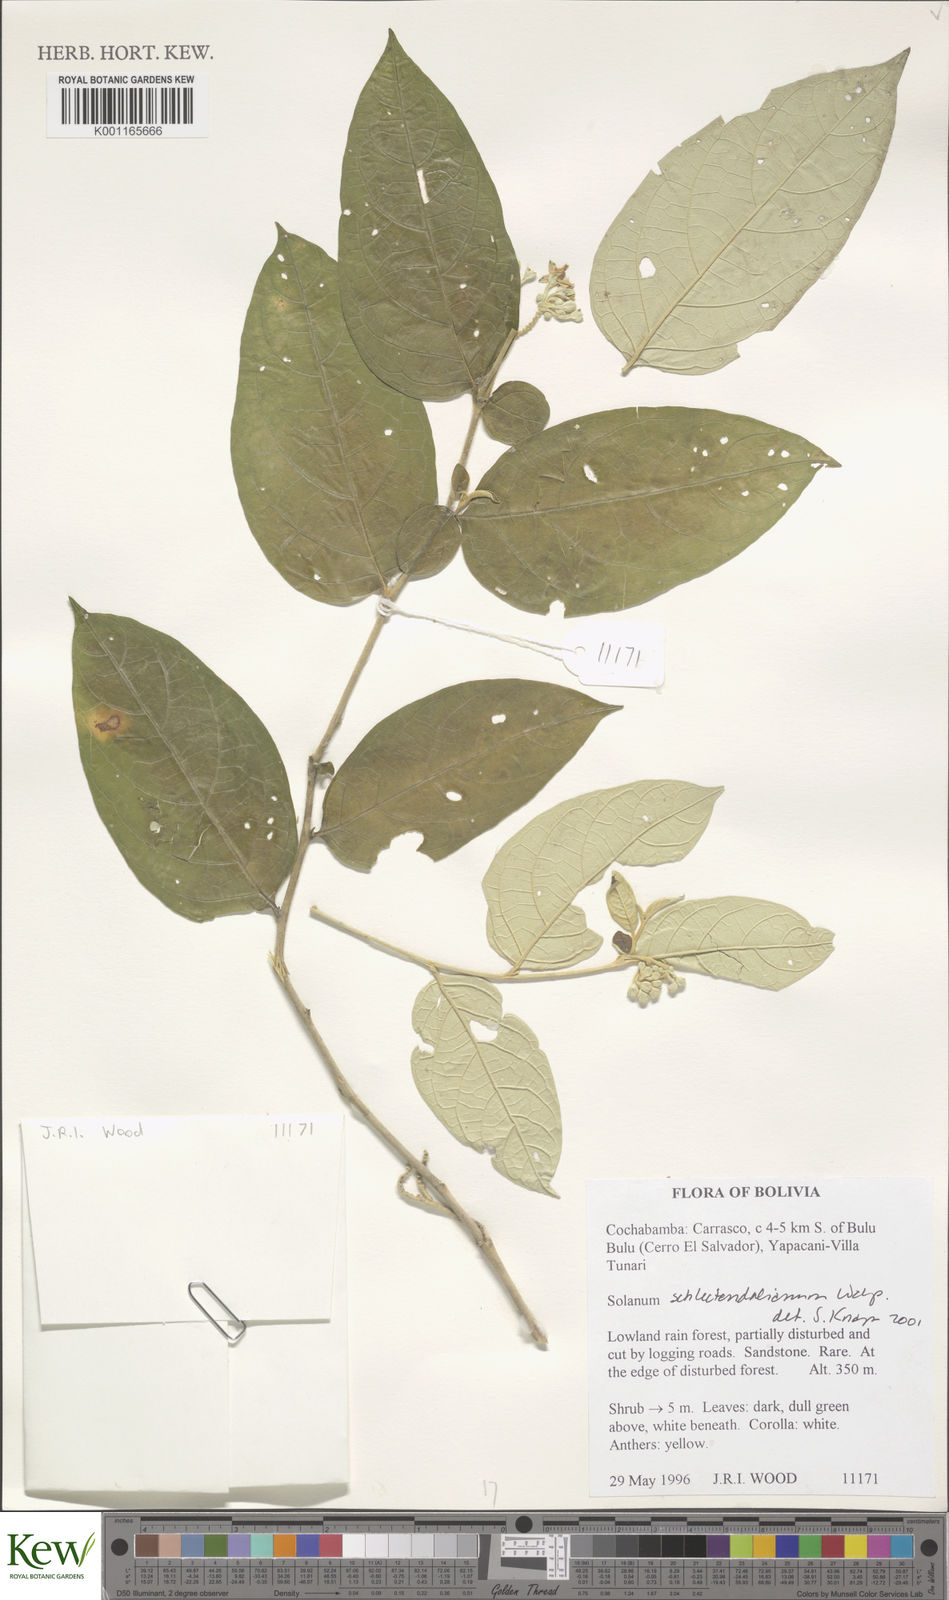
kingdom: Plantae
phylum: Tracheophyta
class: Magnoliopsida
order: Solanales
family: Solanaceae
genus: Solanum
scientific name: Solanum schlechtendalianum
